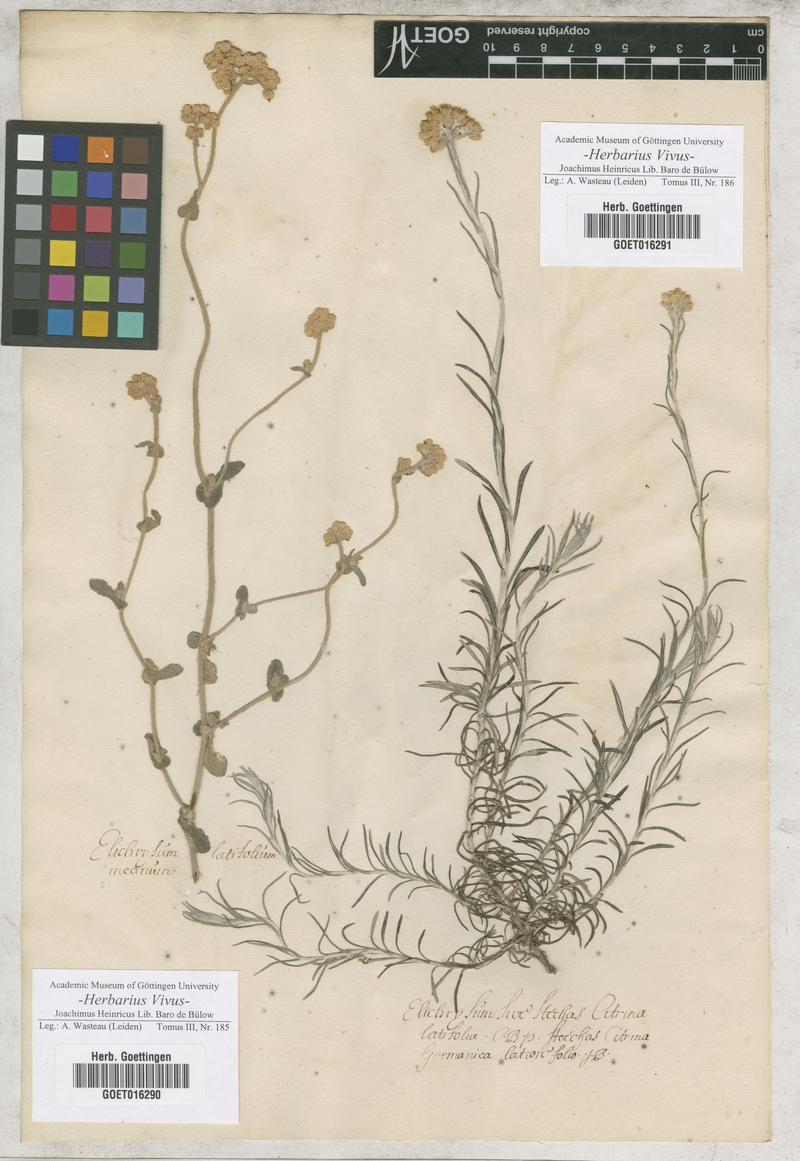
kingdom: Plantae
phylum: Tracheophyta
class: Magnoliopsida
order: Asterales
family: Asteraceae
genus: Helichrysum
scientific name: Helichrysum
